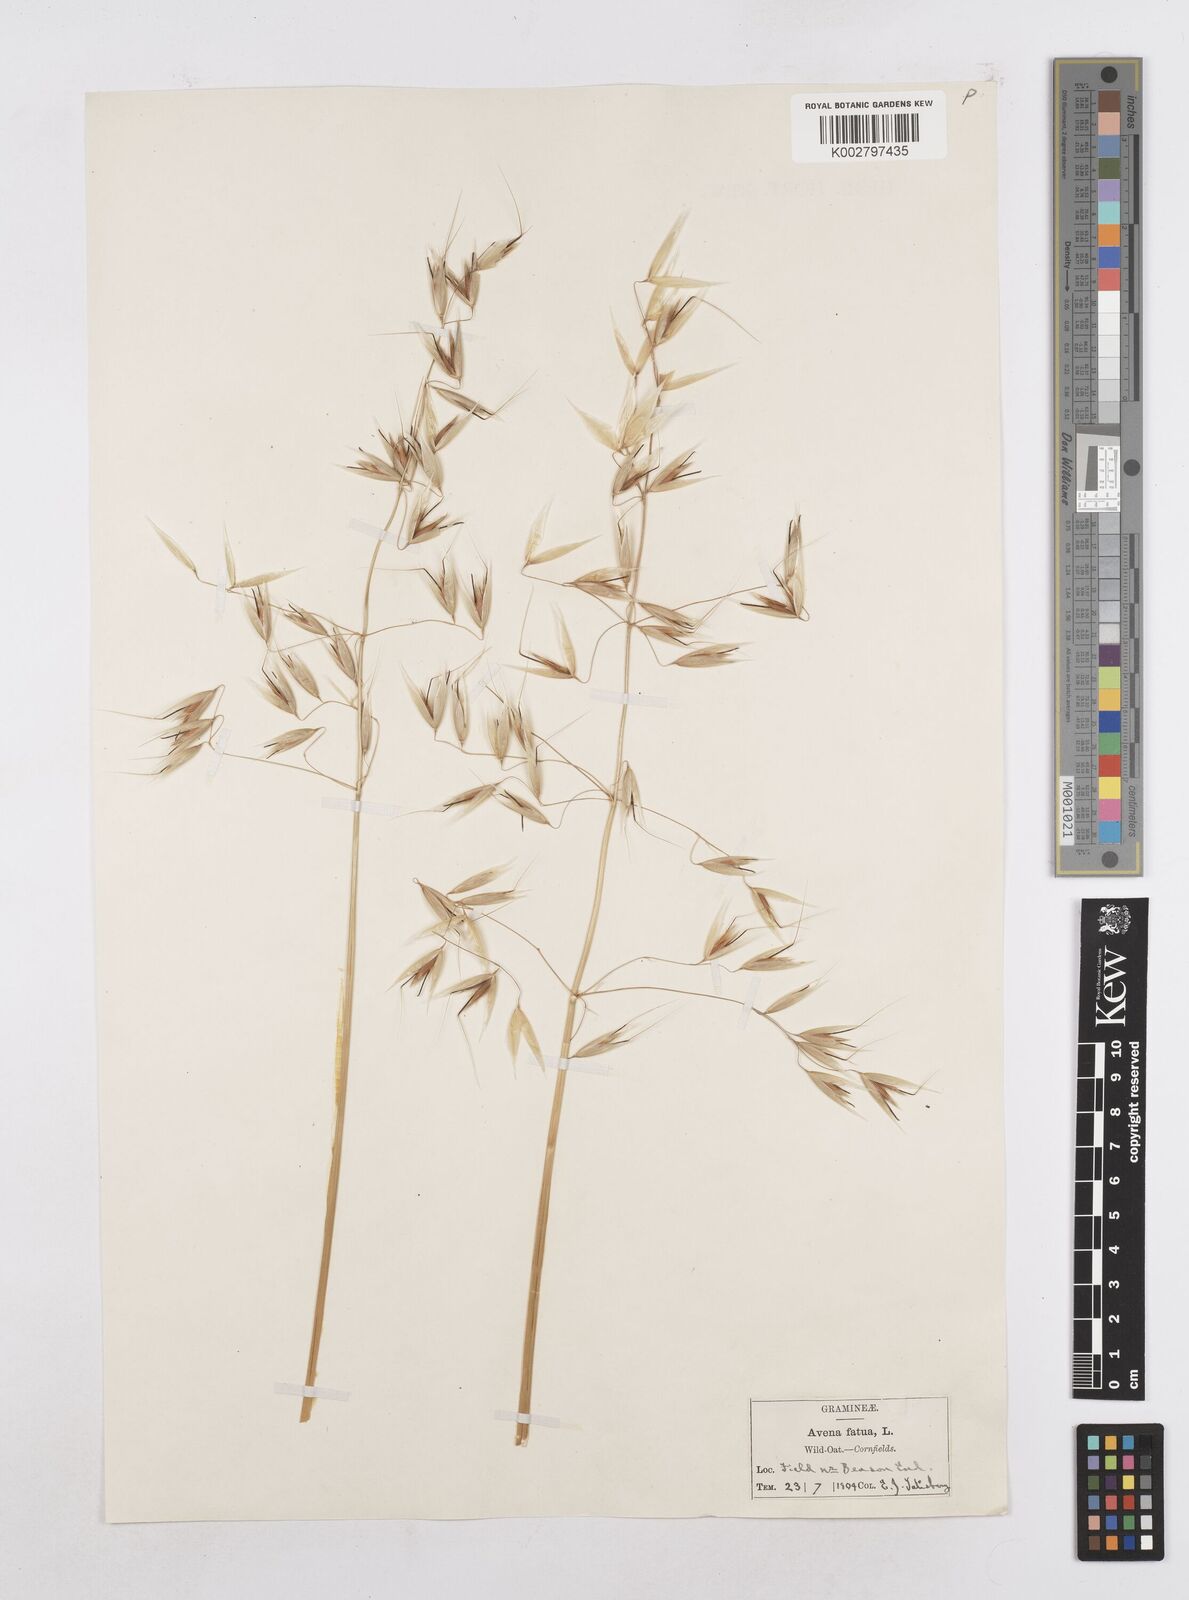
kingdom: Plantae
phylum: Tracheophyta
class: Liliopsida
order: Poales
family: Poaceae
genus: Avena
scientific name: Avena fatua
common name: Wild oat
